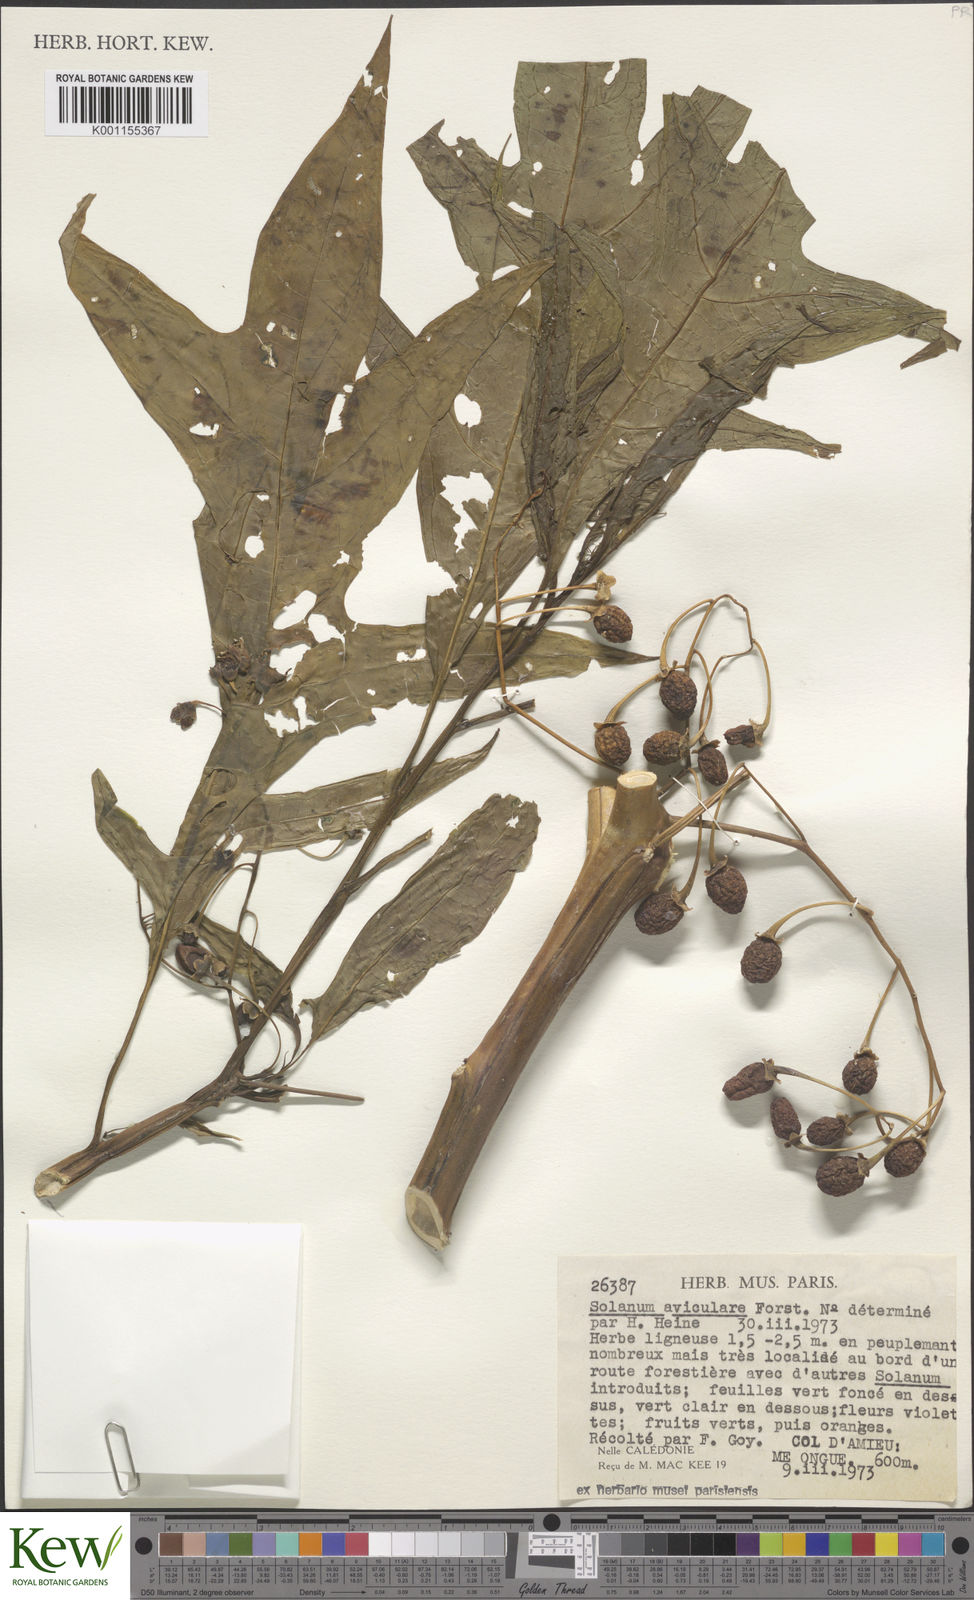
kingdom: Plantae
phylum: Tracheophyta
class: Magnoliopsida
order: Solanales
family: Solanaceae
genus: Solanum
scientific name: Solanum aviculare
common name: New zealand nightshade
